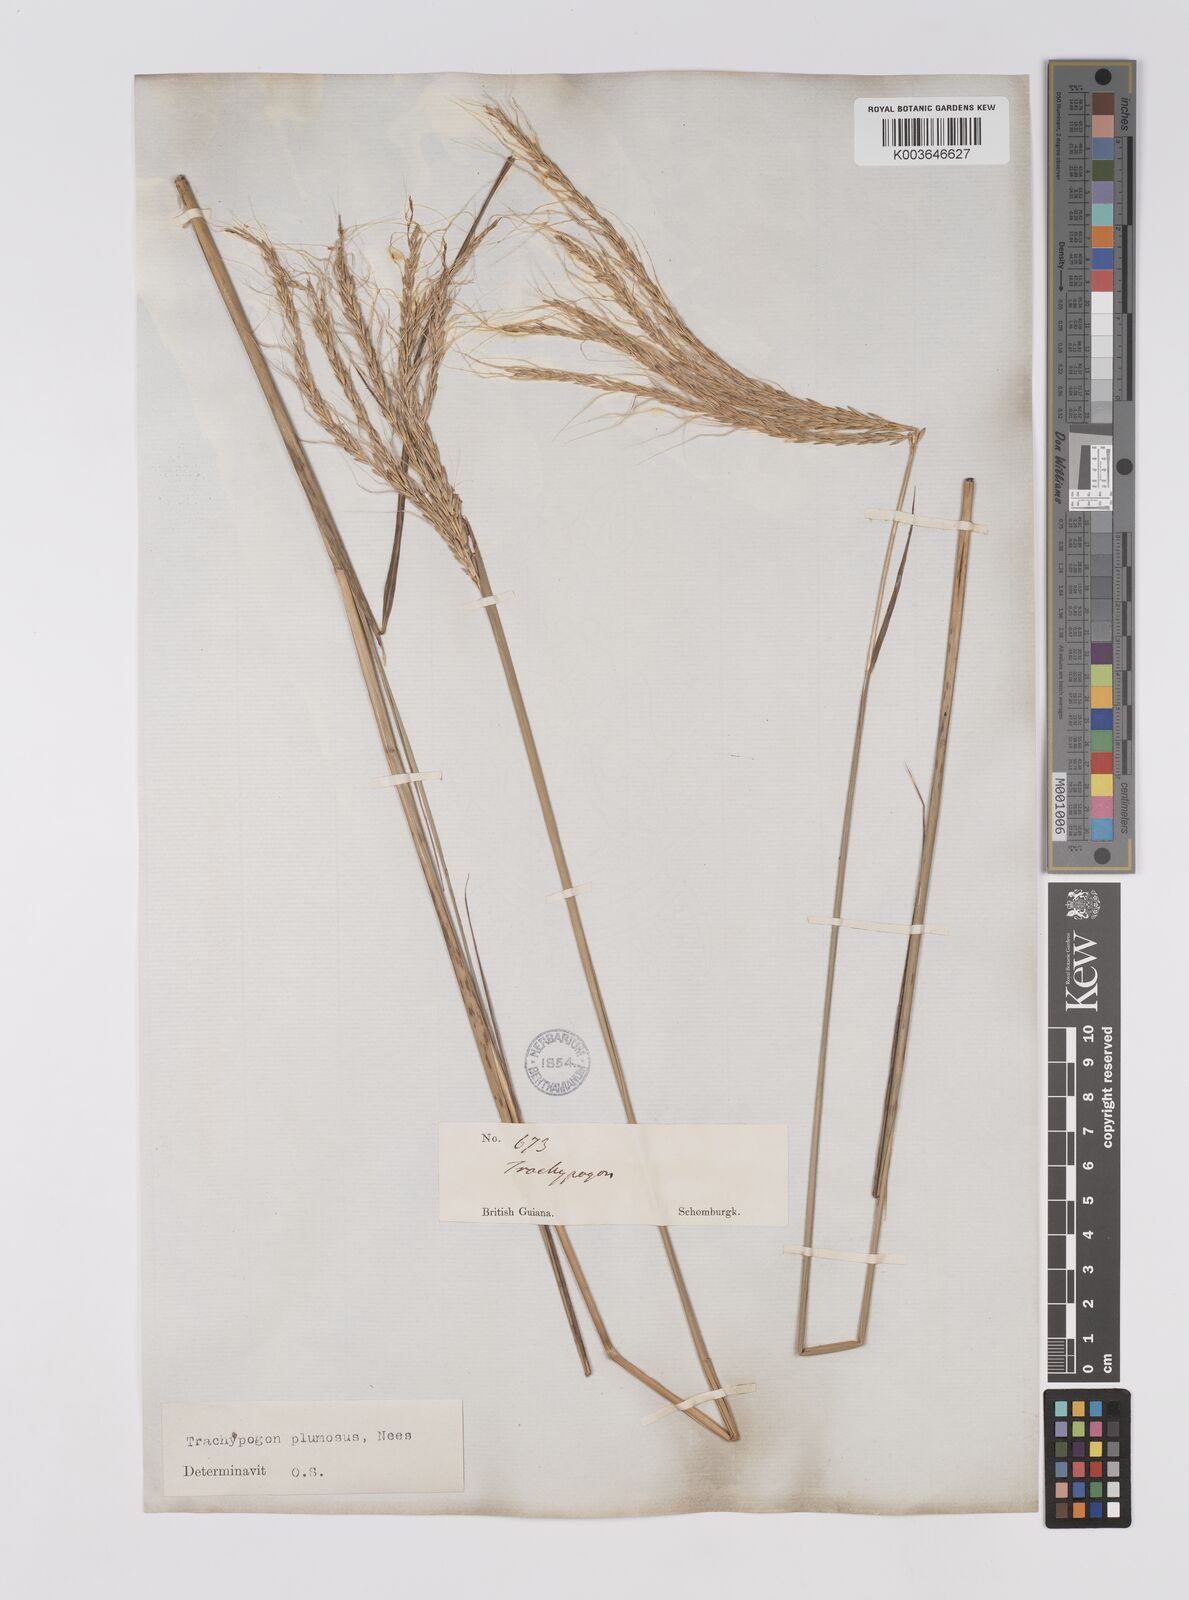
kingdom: Plantae
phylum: Tracheophyta
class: Liliopsida
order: Poales
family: Poaceae
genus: Trachypogon
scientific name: Trachypogon spicatus
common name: Crinkle-awn
